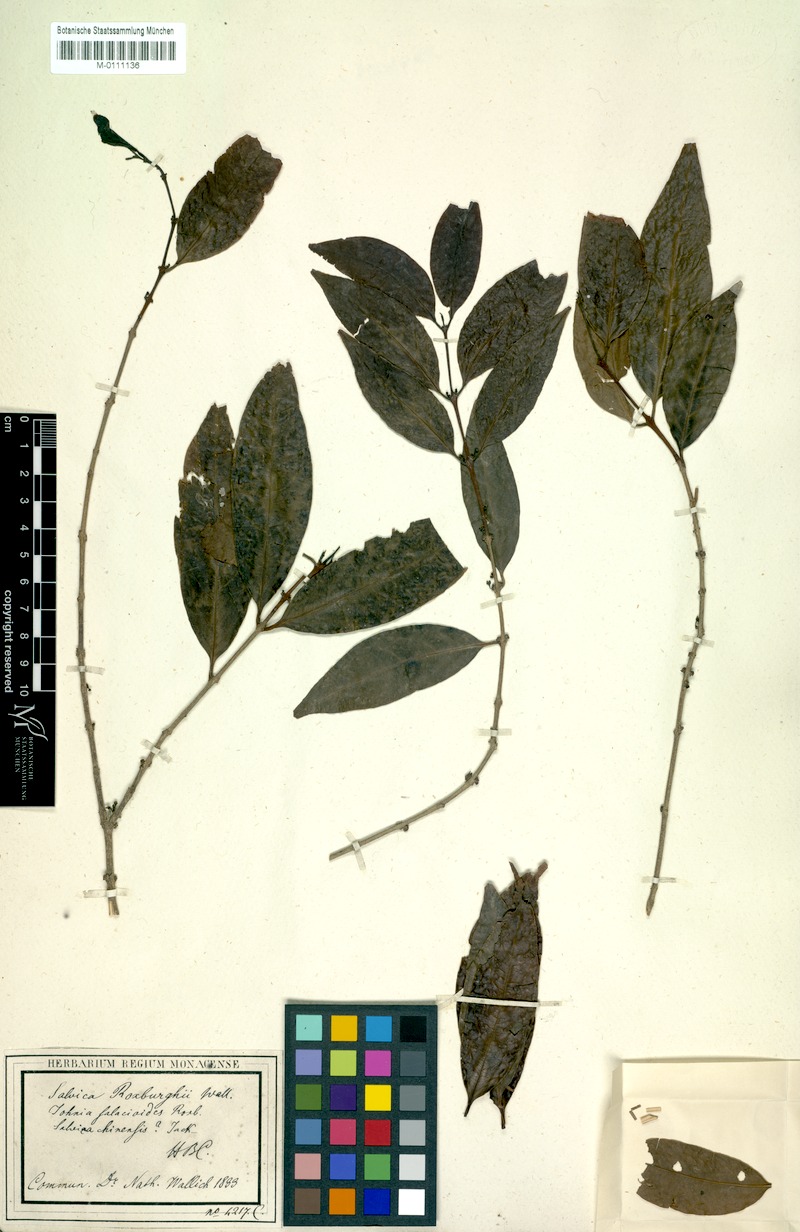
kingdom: Plantae
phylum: Tracheophyta
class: Magnoliopsida
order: Celastrales
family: Celastraceae
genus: Salacia
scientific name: Salacia salacioides
